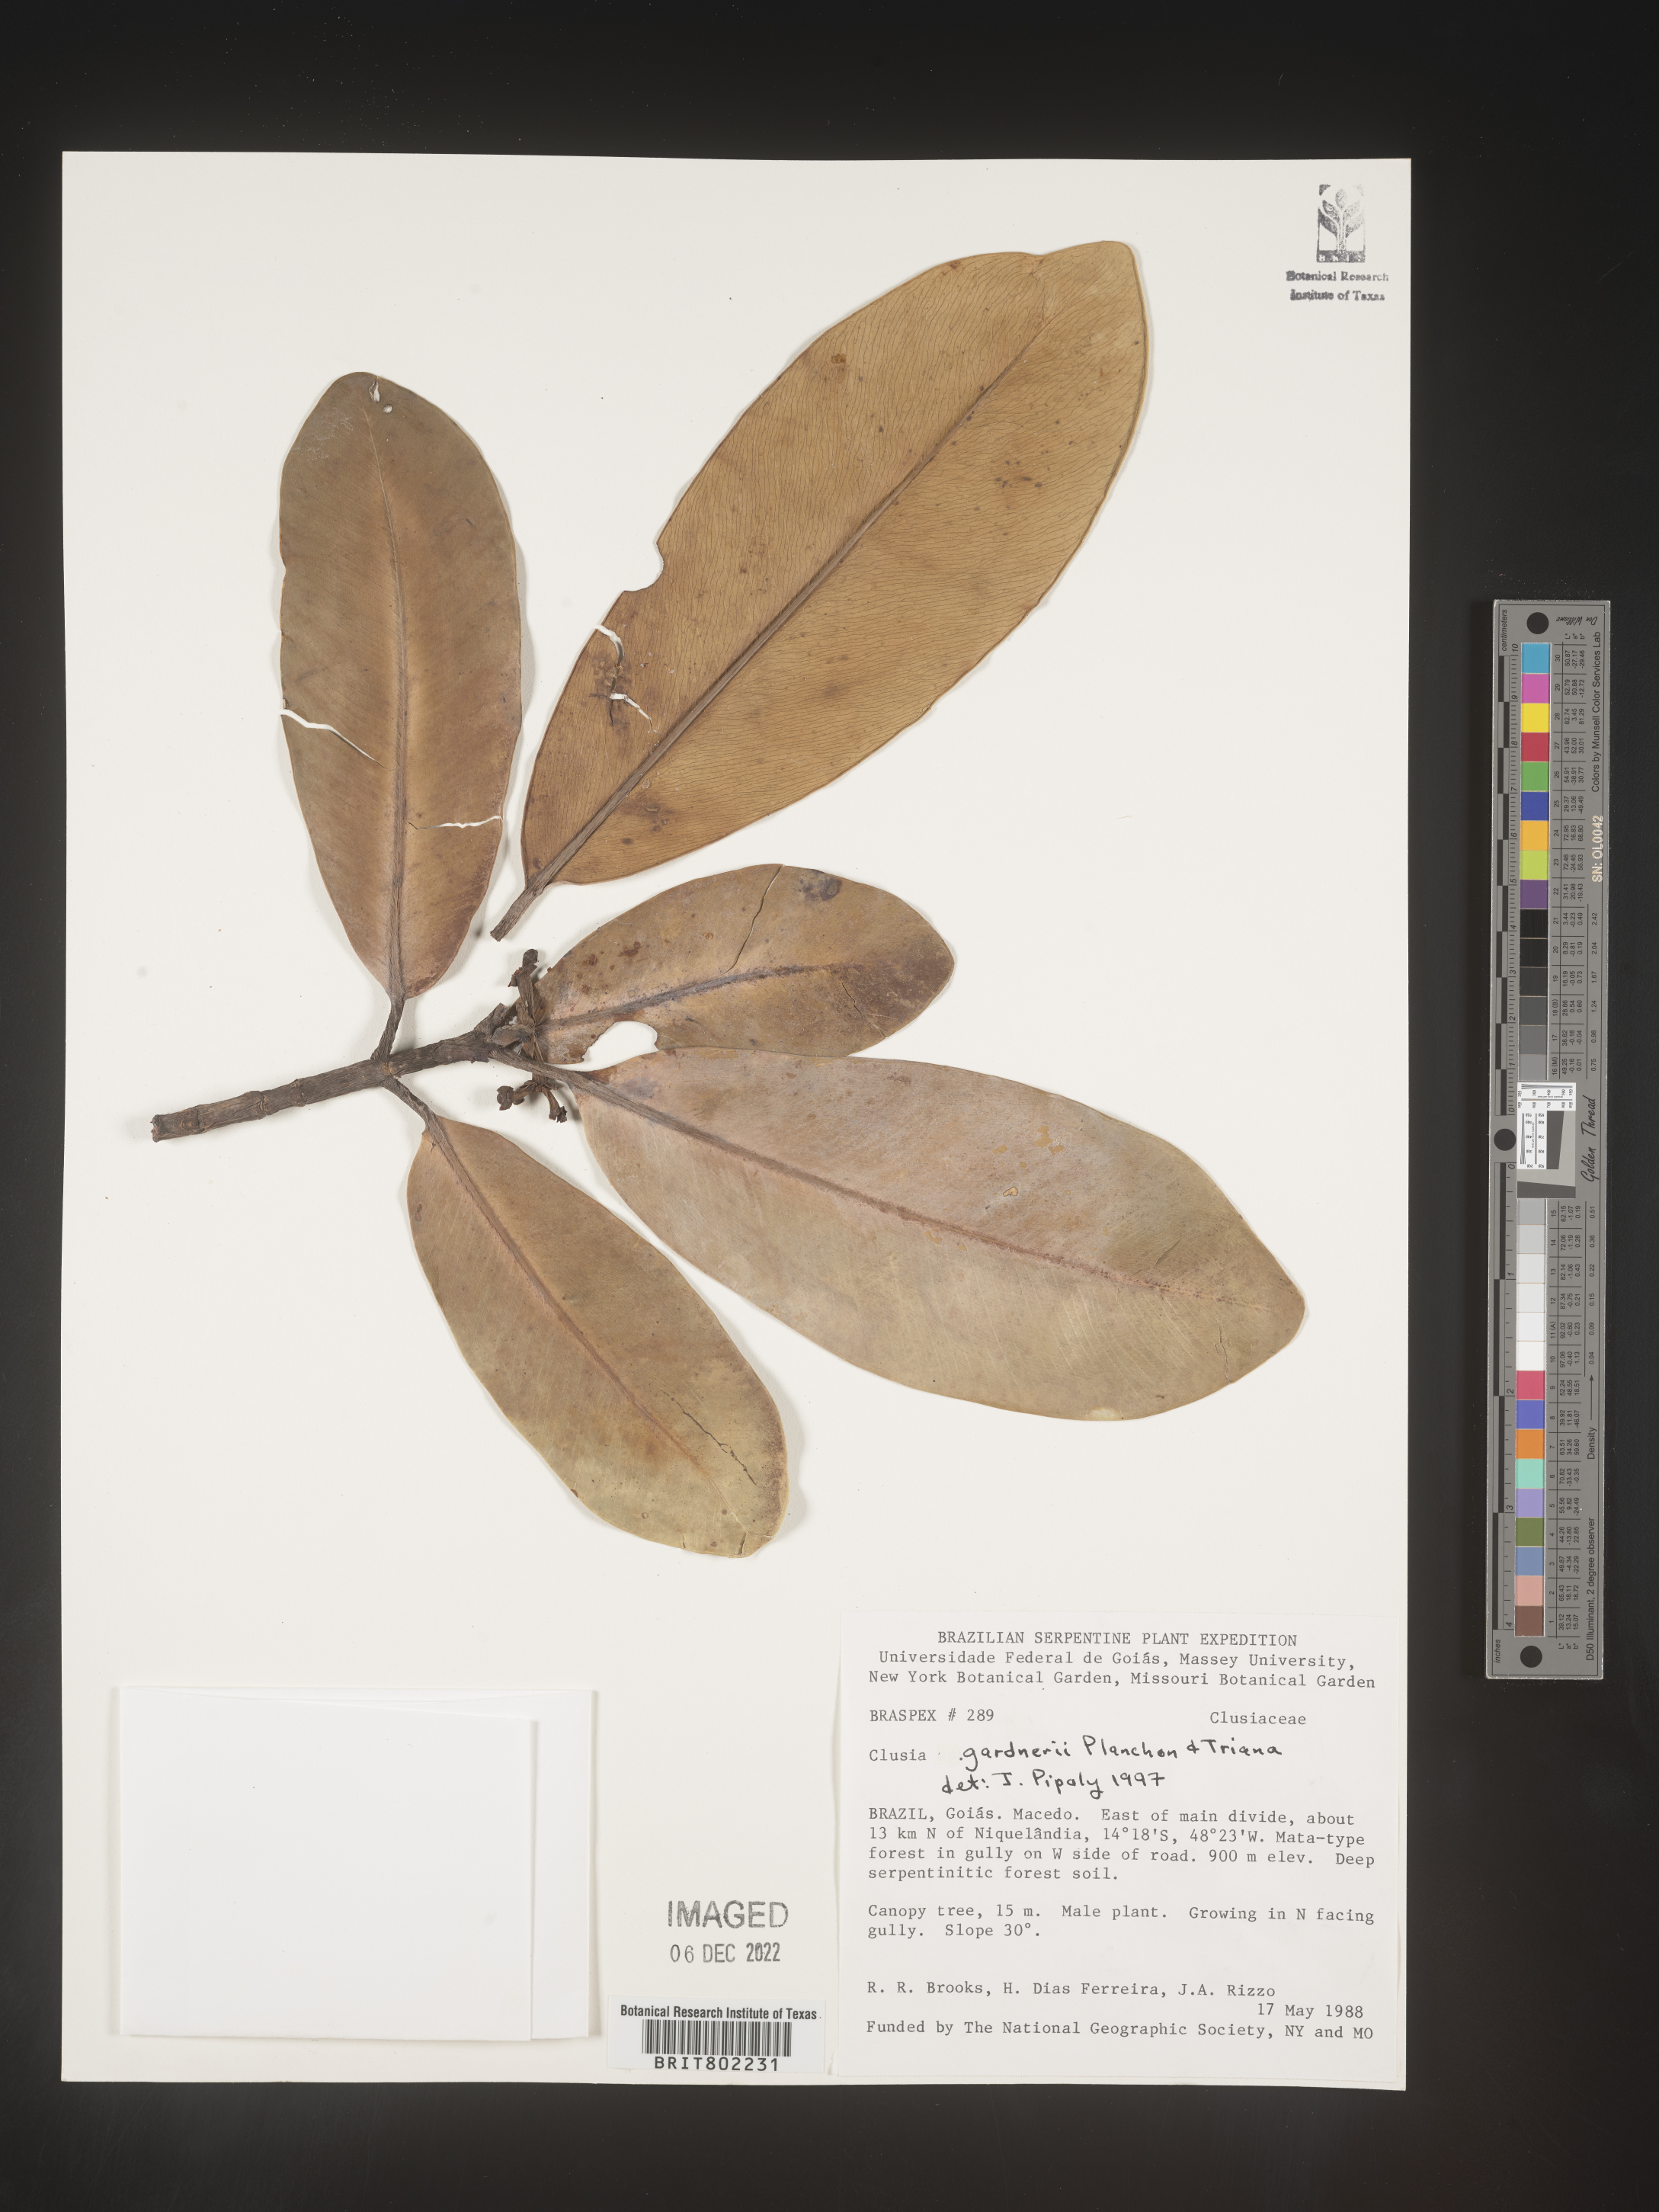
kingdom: Plantae
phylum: Tracheophyta
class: Magnoliopsida
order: Malpighiales
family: Clusiaceae
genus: Clusia
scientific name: Clusia
